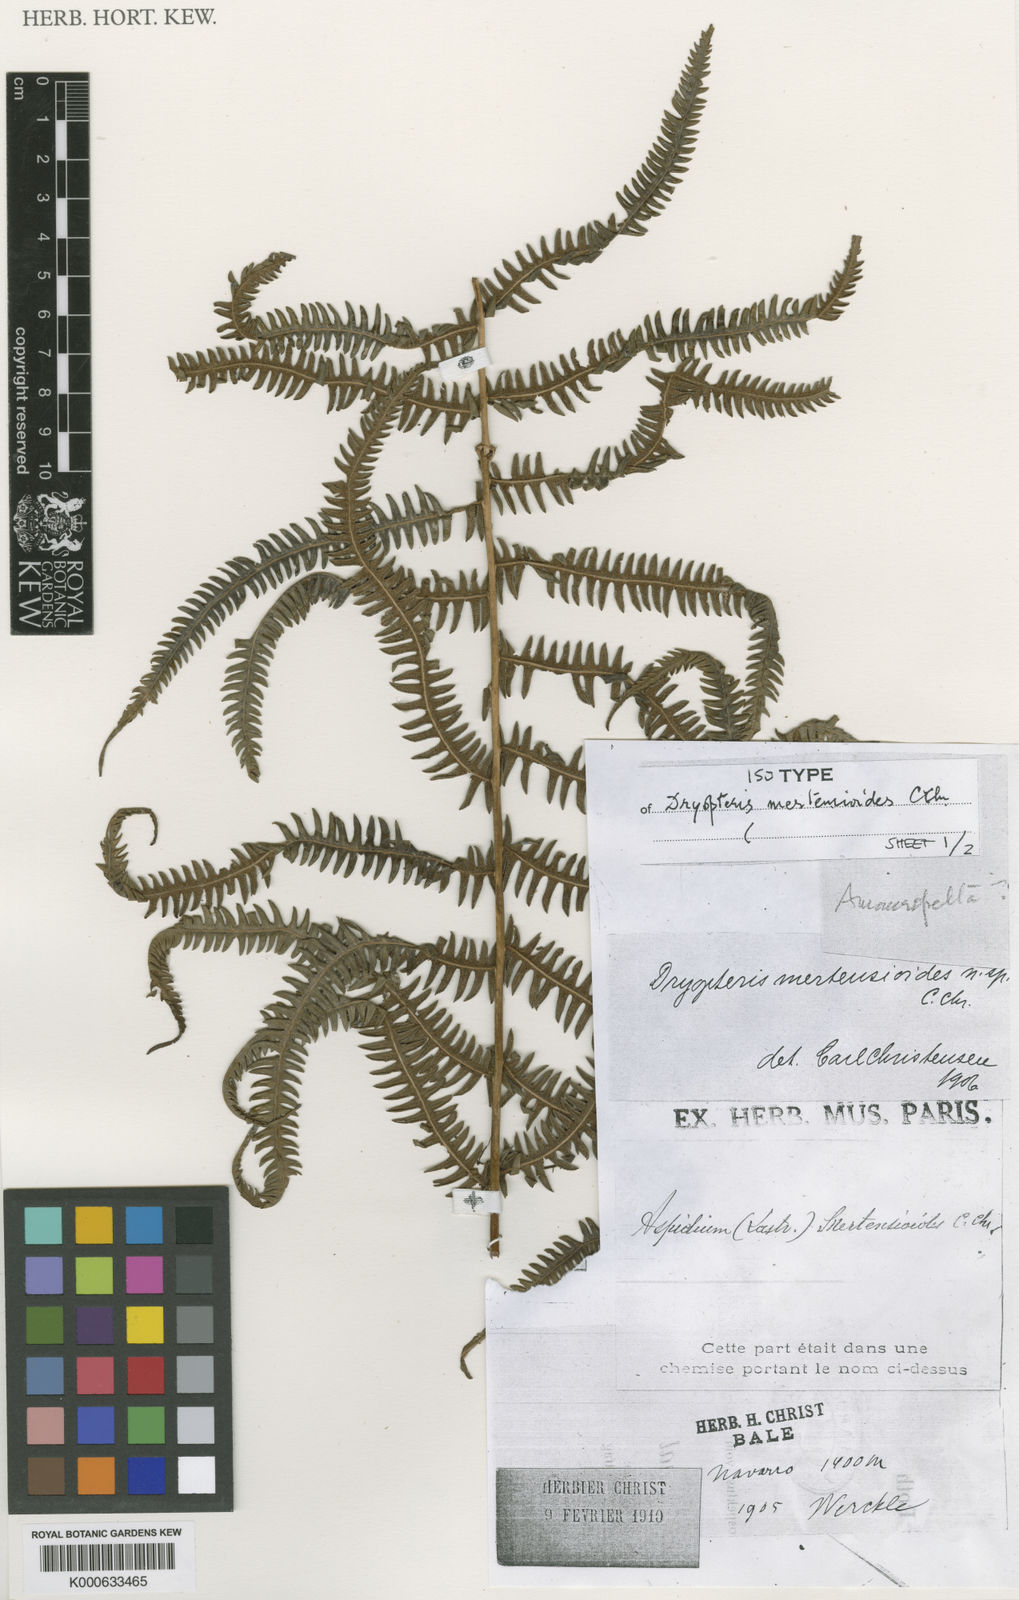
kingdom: Plantae
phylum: Tracheophyta
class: Polypodiopsida
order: Polypodiales
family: Thelypteridaceae
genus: Amauropelta
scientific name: Amauropelta mertensioides
